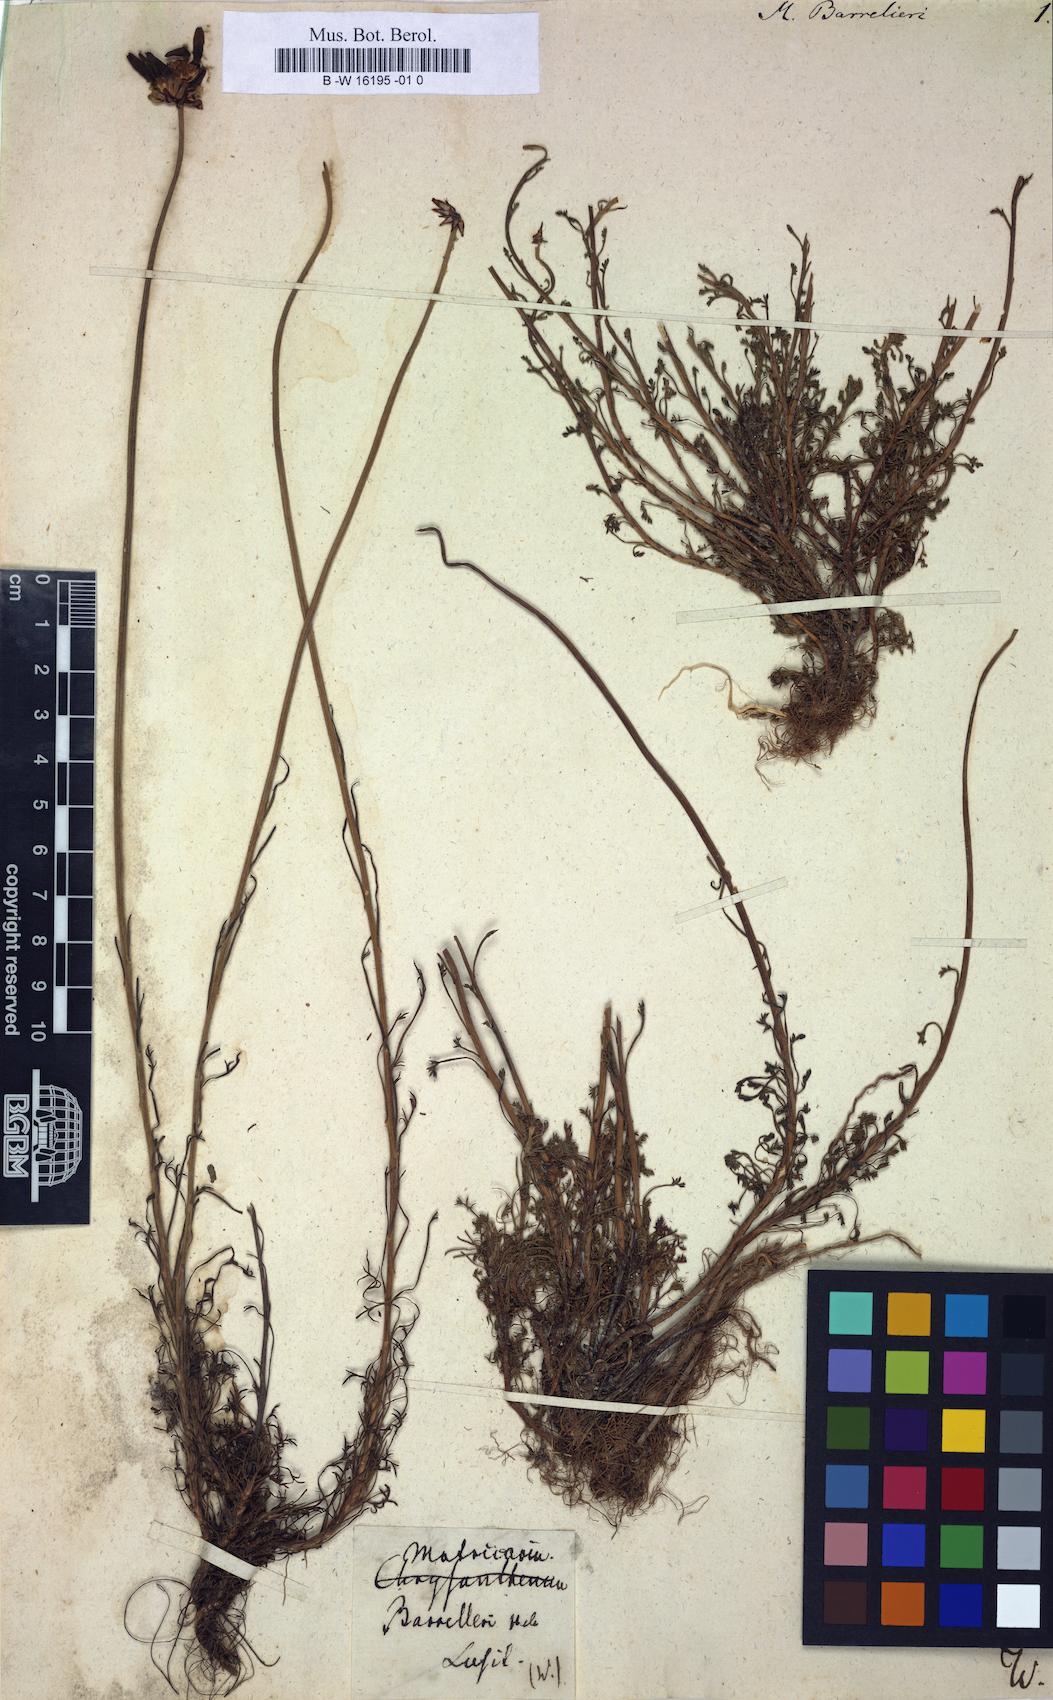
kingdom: Plantae
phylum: Tracheophyta
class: Magnoliopsida
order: Asterales
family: Asteraceae
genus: Matricaria
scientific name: Matricaria
